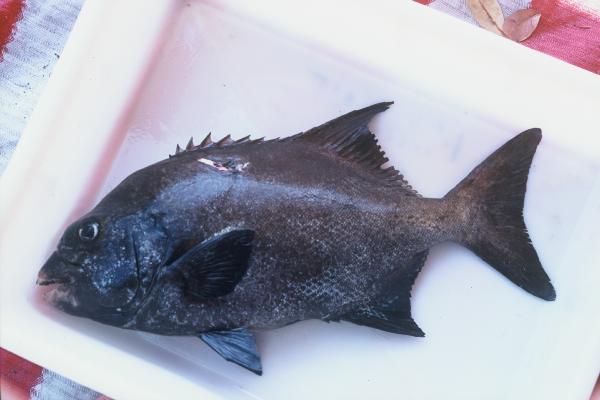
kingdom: Animalia
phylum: Chordata
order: Perciformes
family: Oplegnathidae
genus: Oplegnathus
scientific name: Oplegnathus peaolopesi
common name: Mozambique knifejaw
